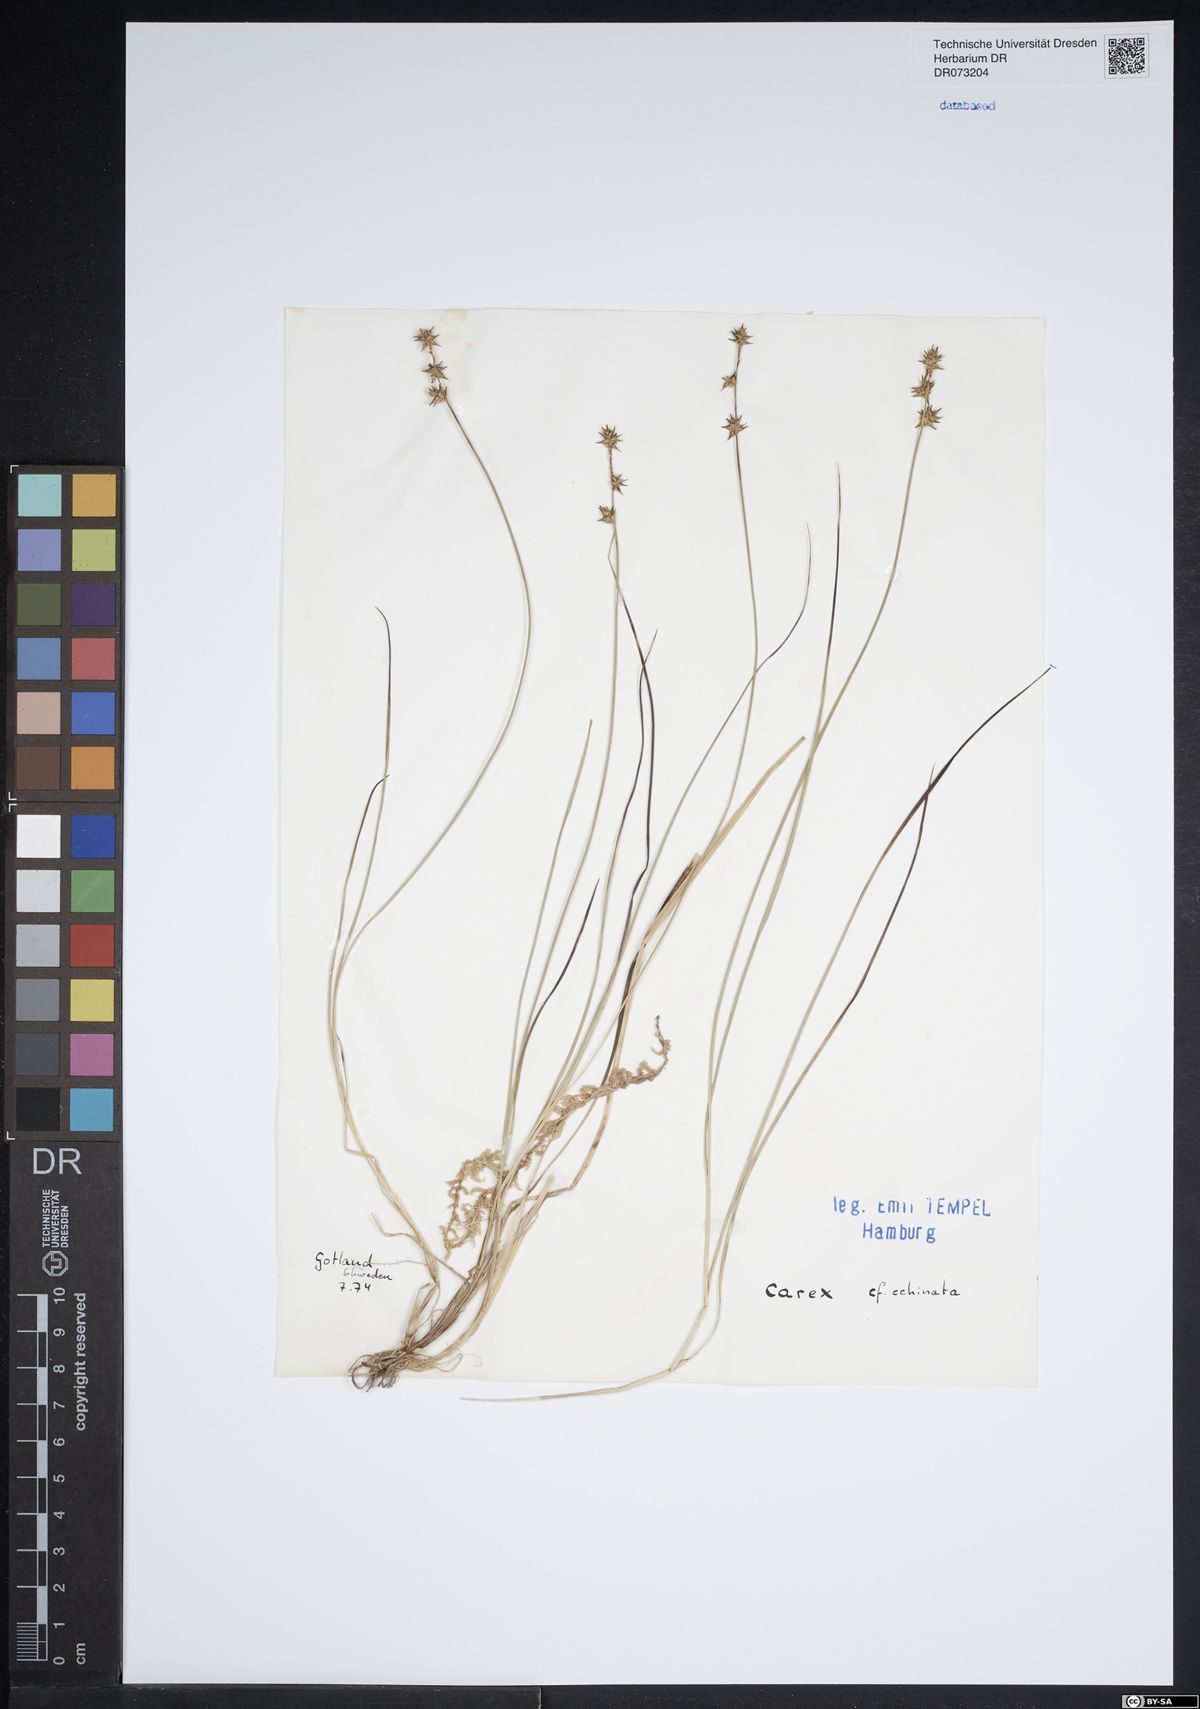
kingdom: Plantae
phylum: Tracheophyta
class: Liliopsida
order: Poales
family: Cyperaceae
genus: Carex
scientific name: Carex echinata
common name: Star sedge
